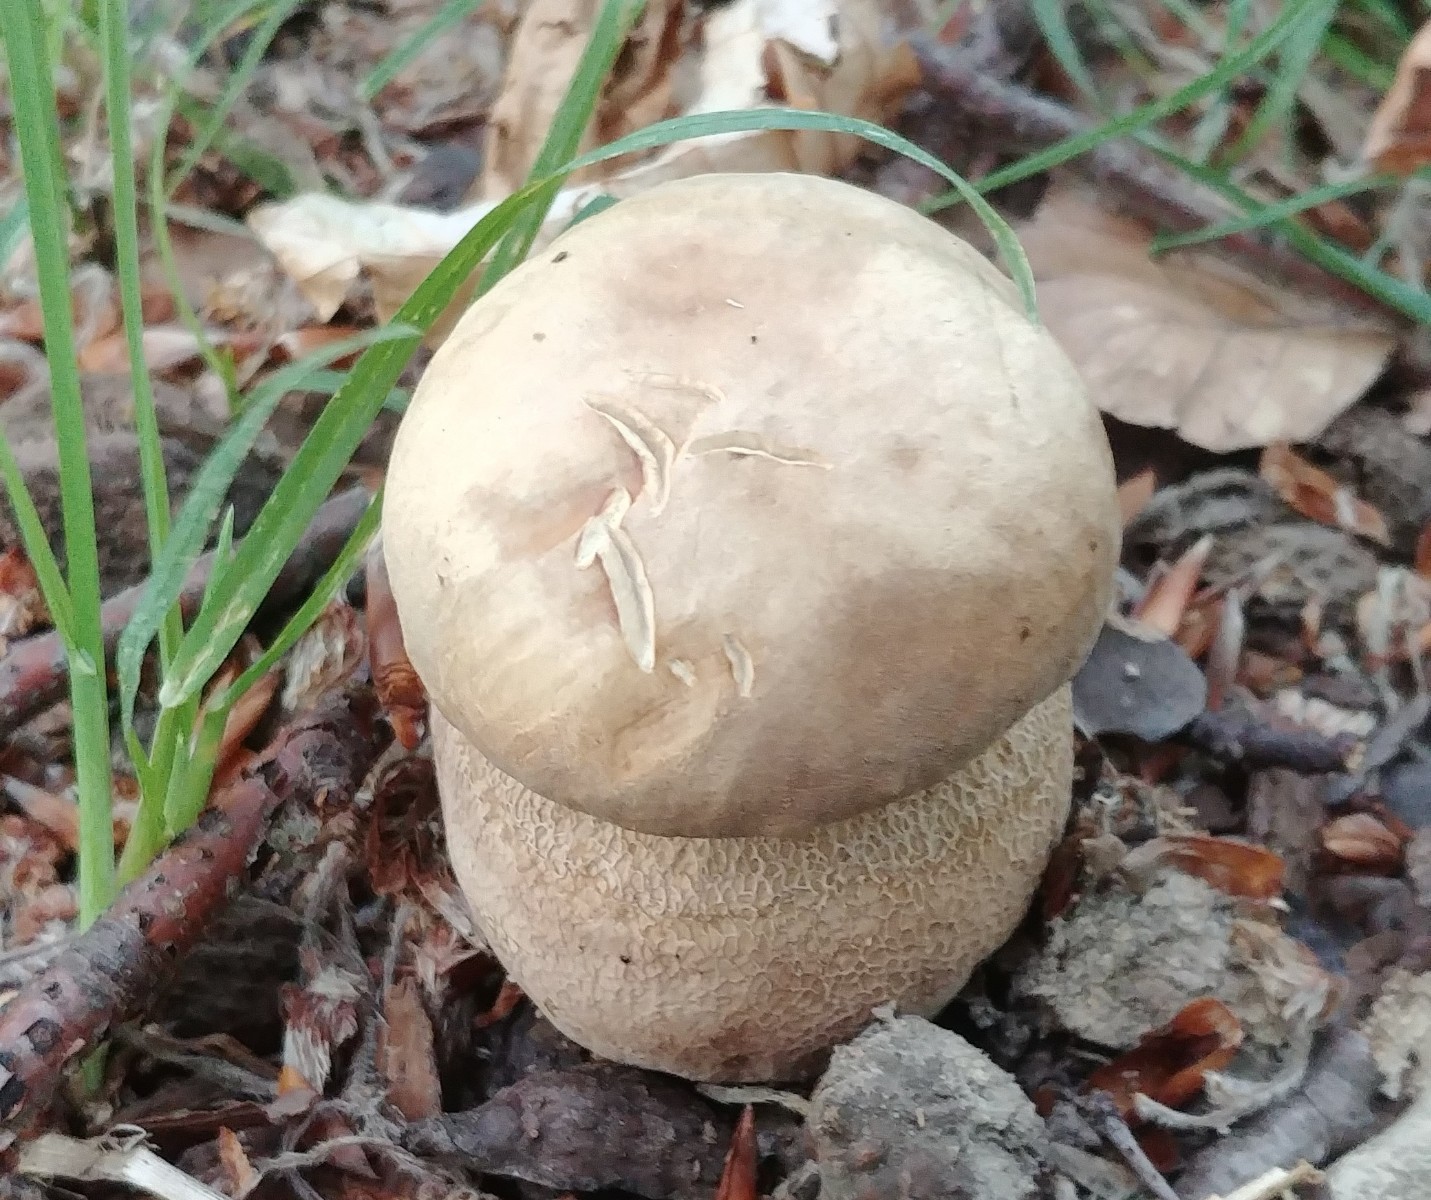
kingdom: Fungi
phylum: Basidiomycota
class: Agaricomycetes
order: Boletales
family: Boletaceae
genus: Boletus
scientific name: Boletus reticulatus
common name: sommer-rørhat
